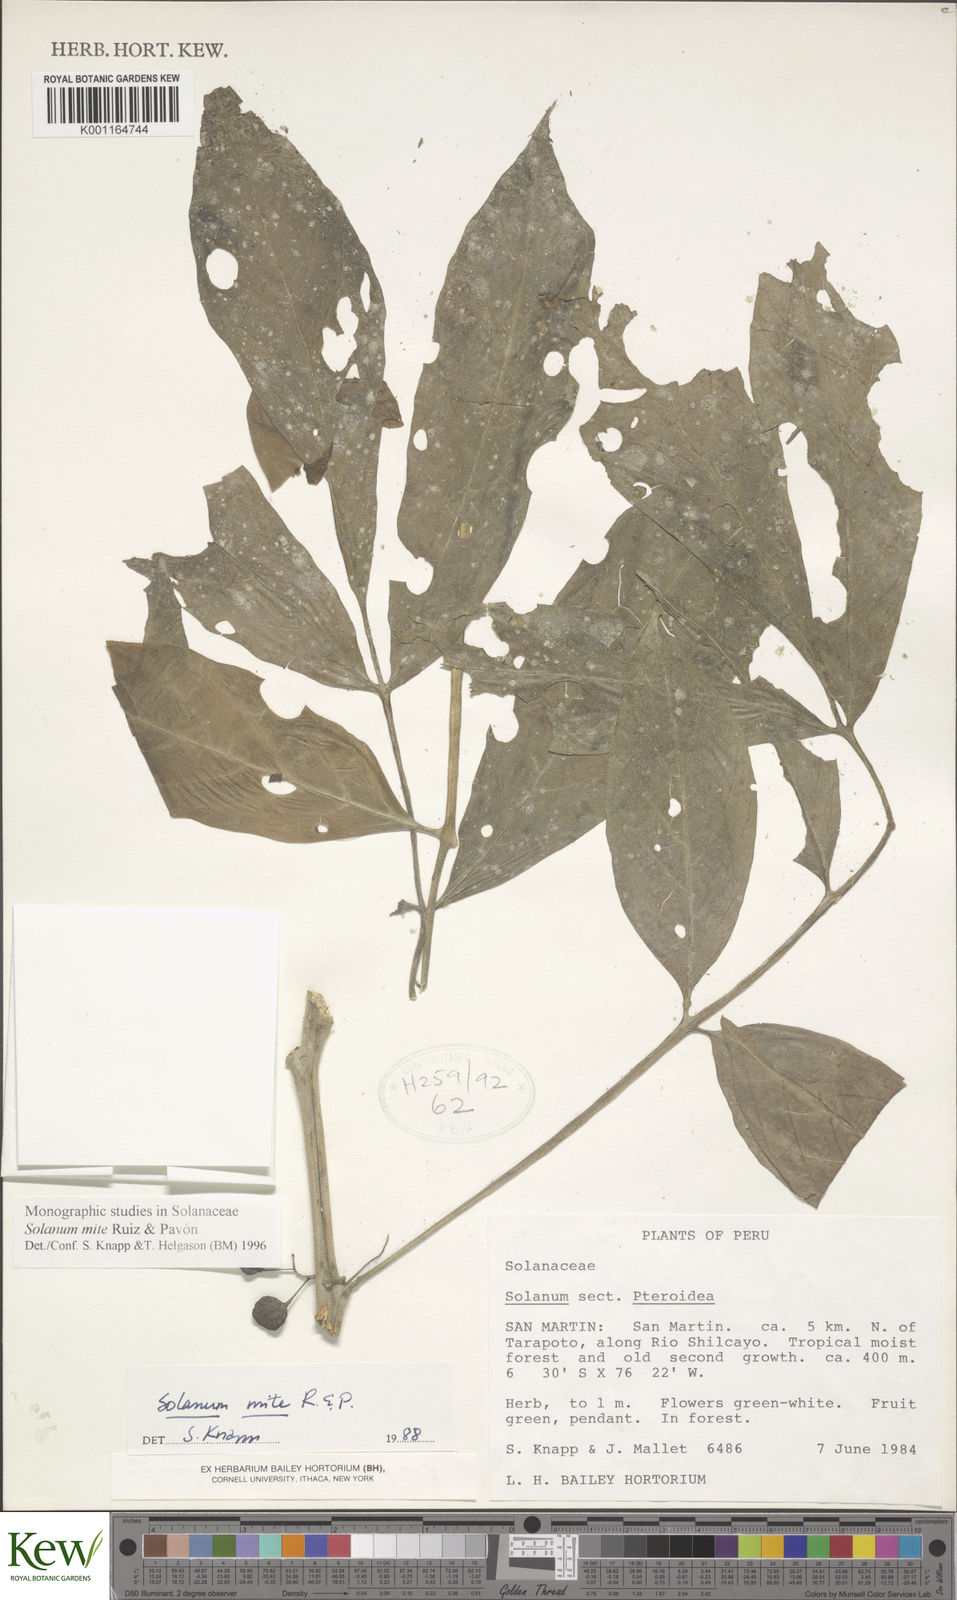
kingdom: Plantae
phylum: Tracheophyta
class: Magnoliopsida
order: Solanales
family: Solanaceae
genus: Solanum
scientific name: Solanum mite
